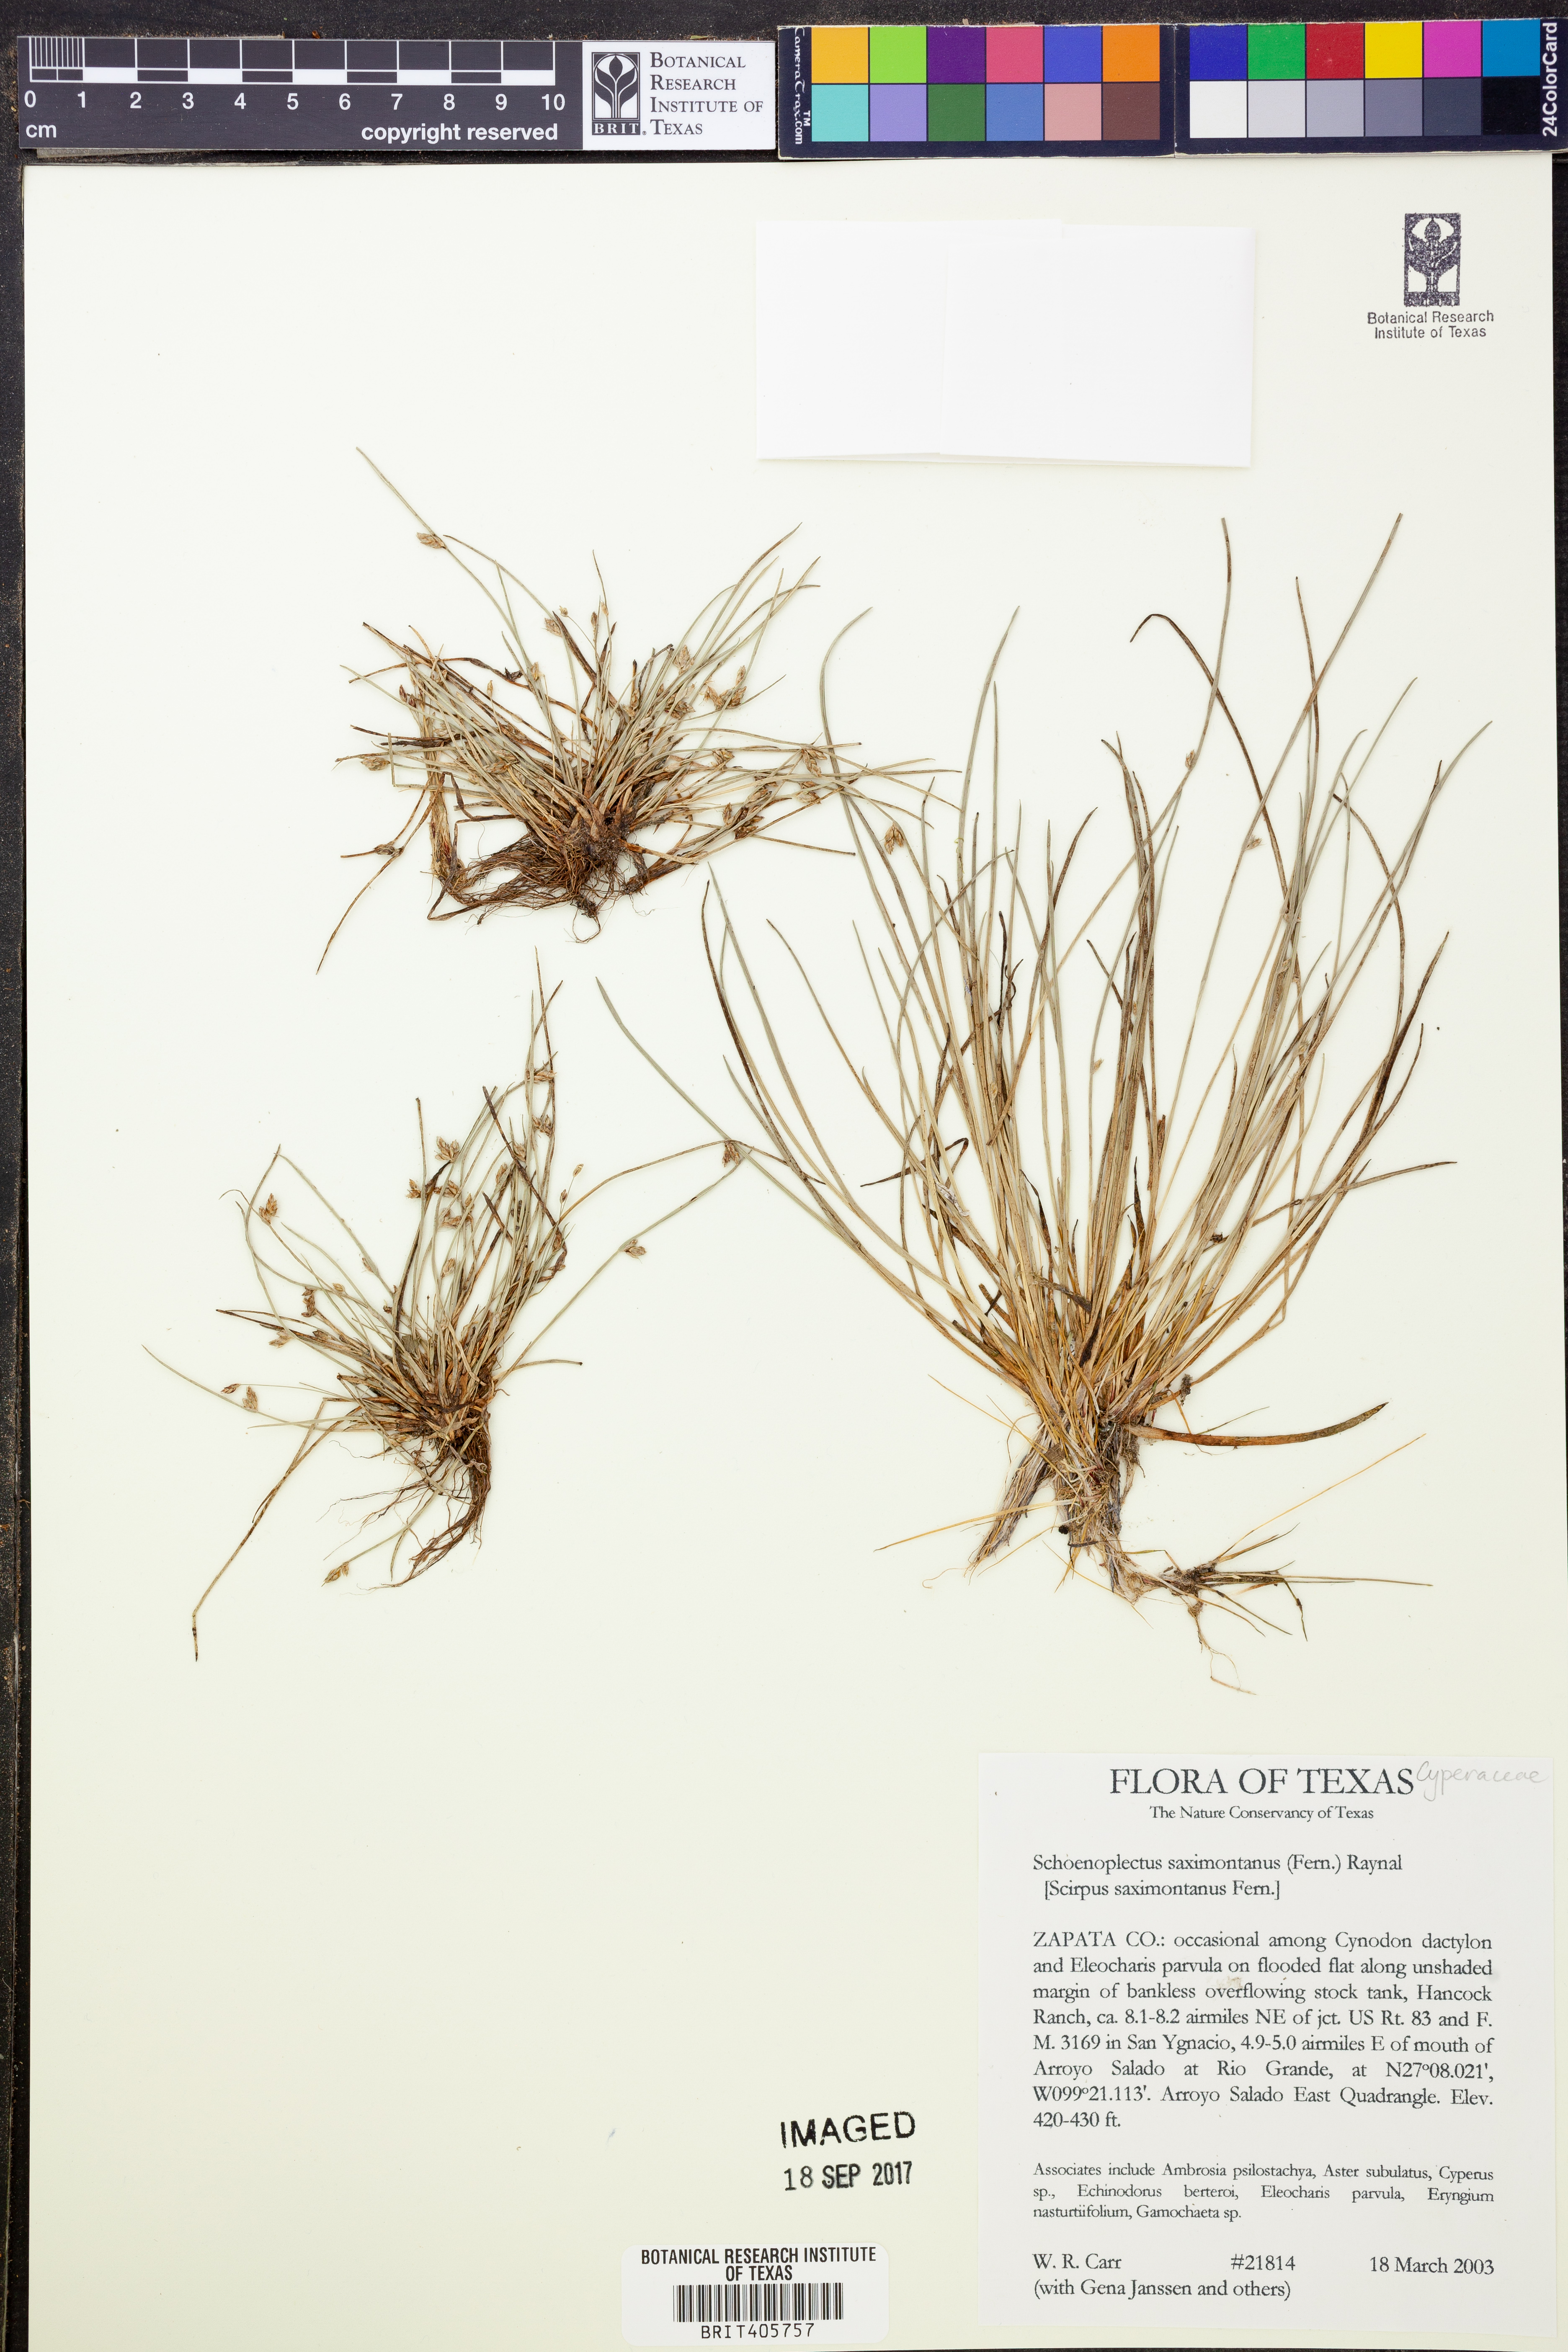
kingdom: Plantae
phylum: Tracheophyta
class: Liliopsida
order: Poales
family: Cyperaceae
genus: Schoenoplectiella
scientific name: Schoenoplectiella saximontana
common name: Rocky mountain clubrush
